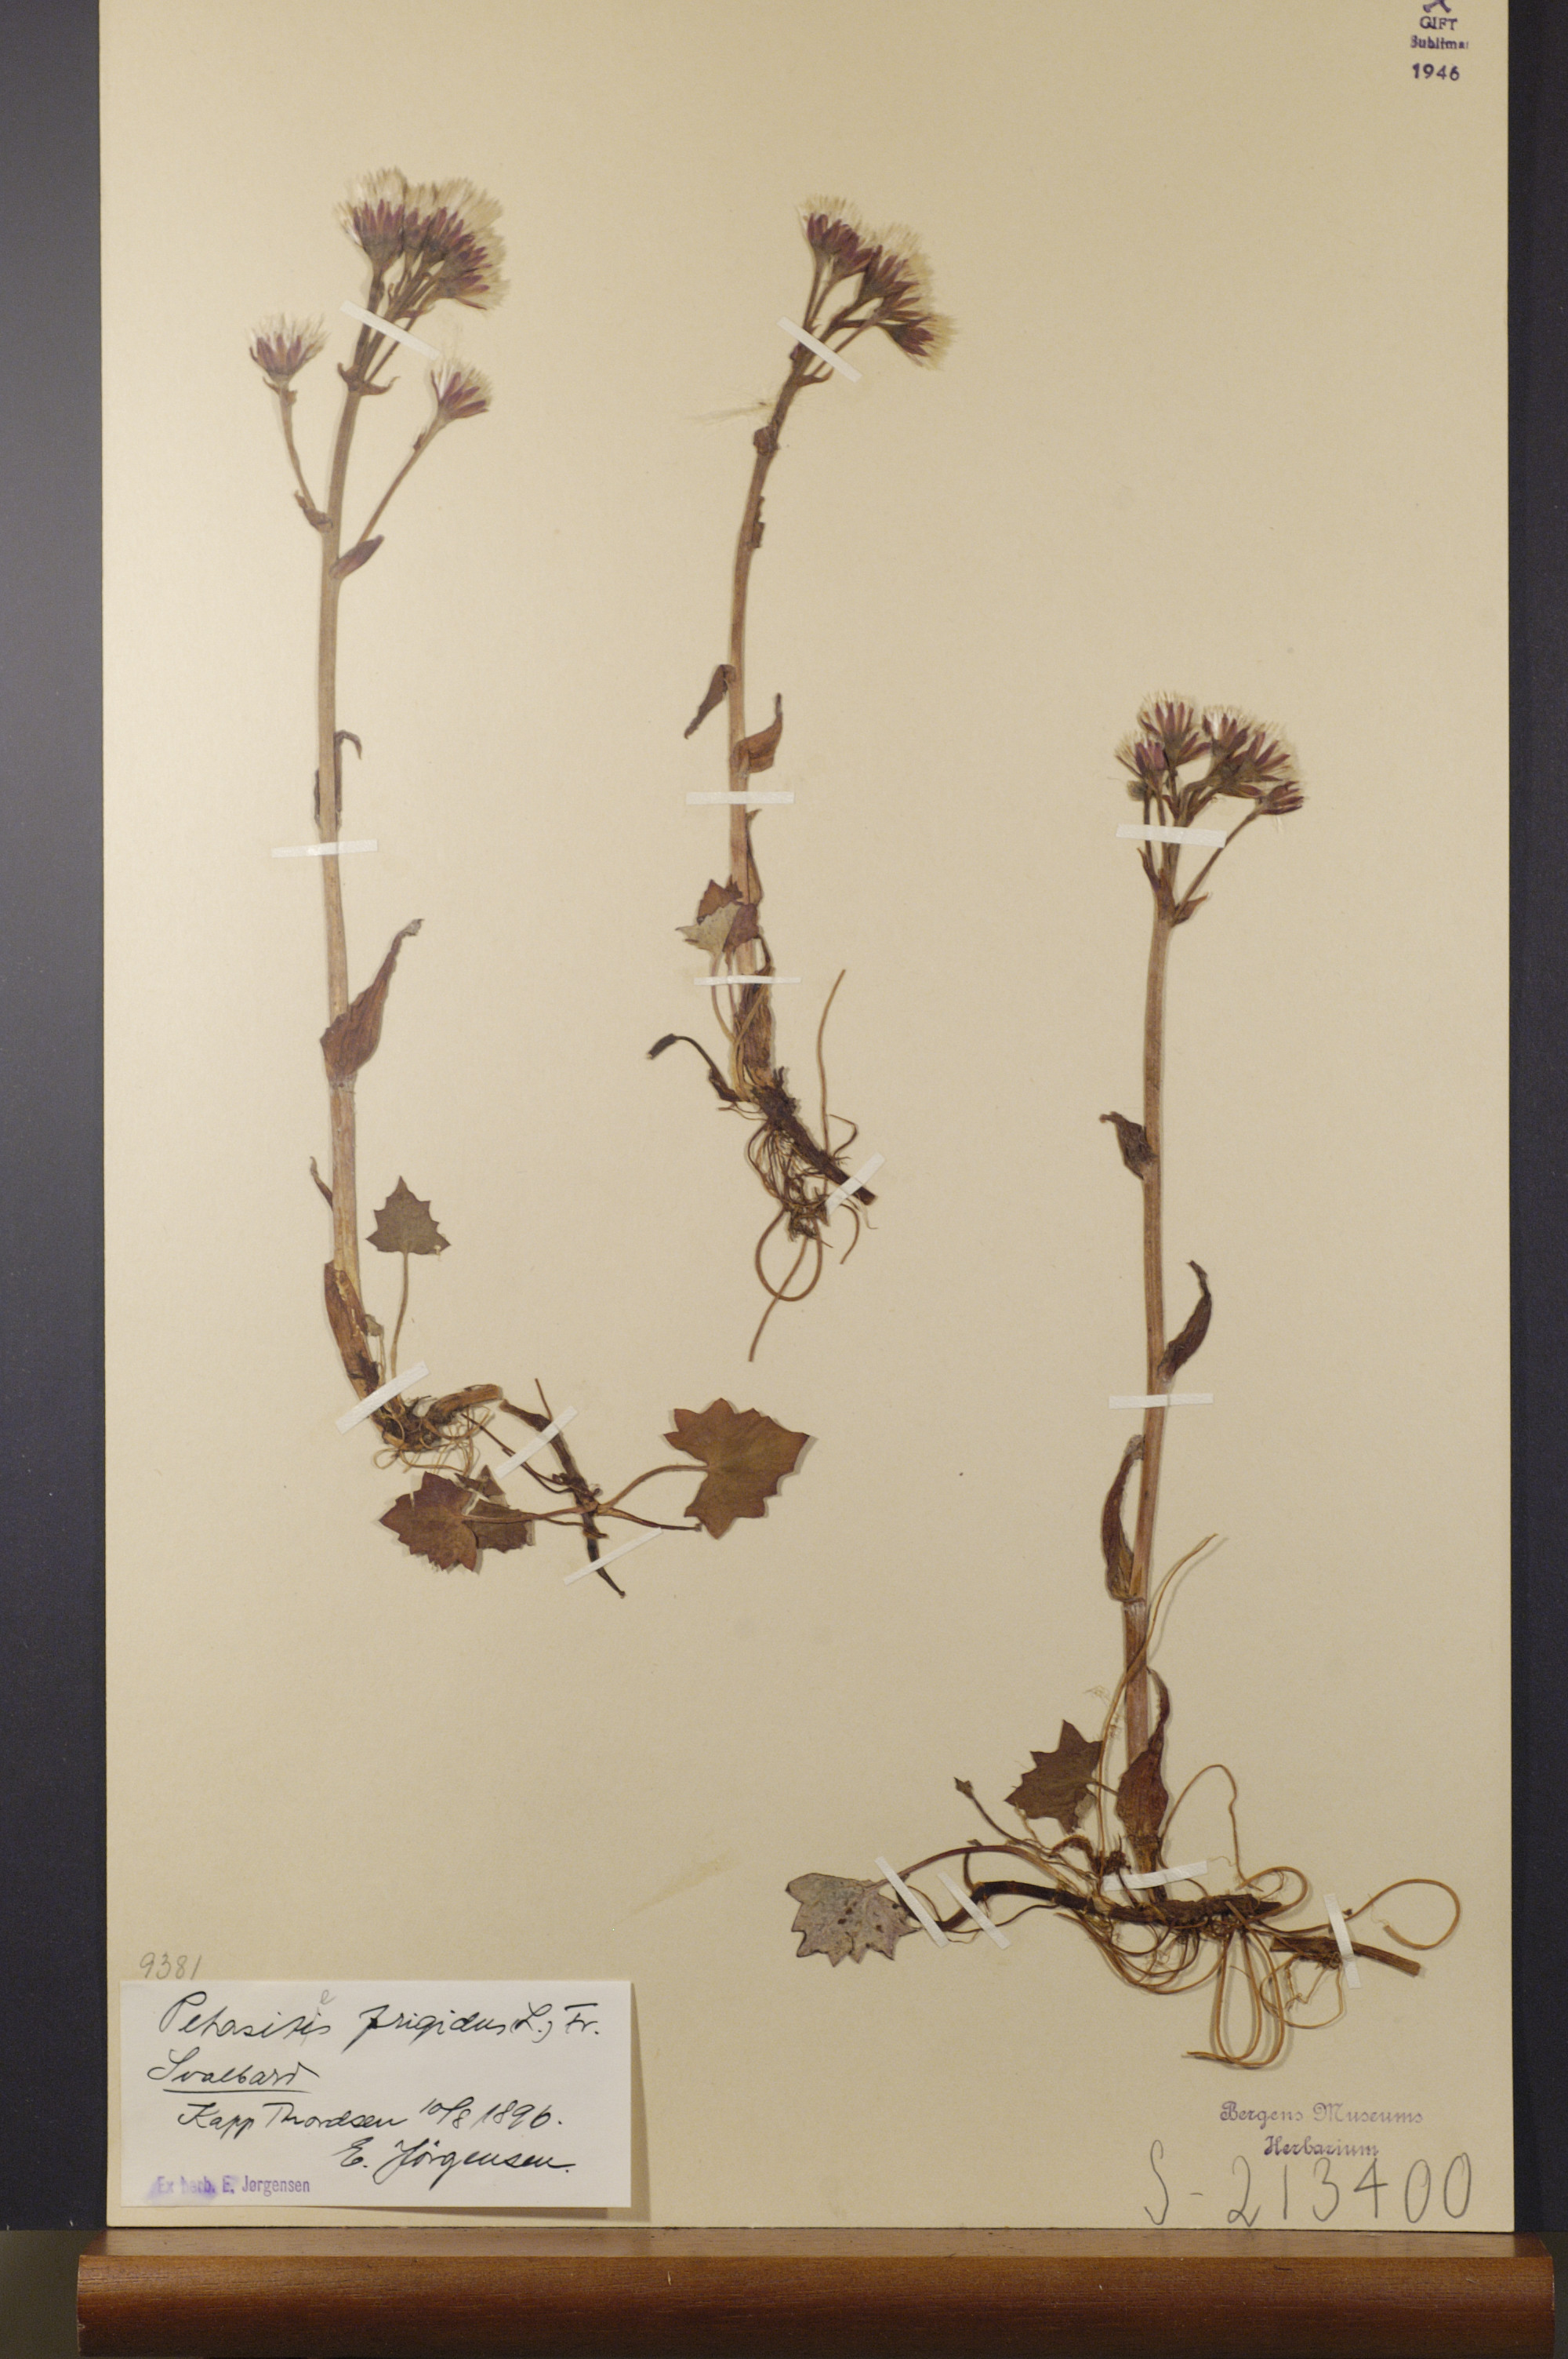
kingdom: Plantae
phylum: Tracheophyta
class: Magnoliopsida
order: Asterales
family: Asteraceae
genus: Petasites
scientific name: Petasites frigidus
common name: Arctic butterbur
